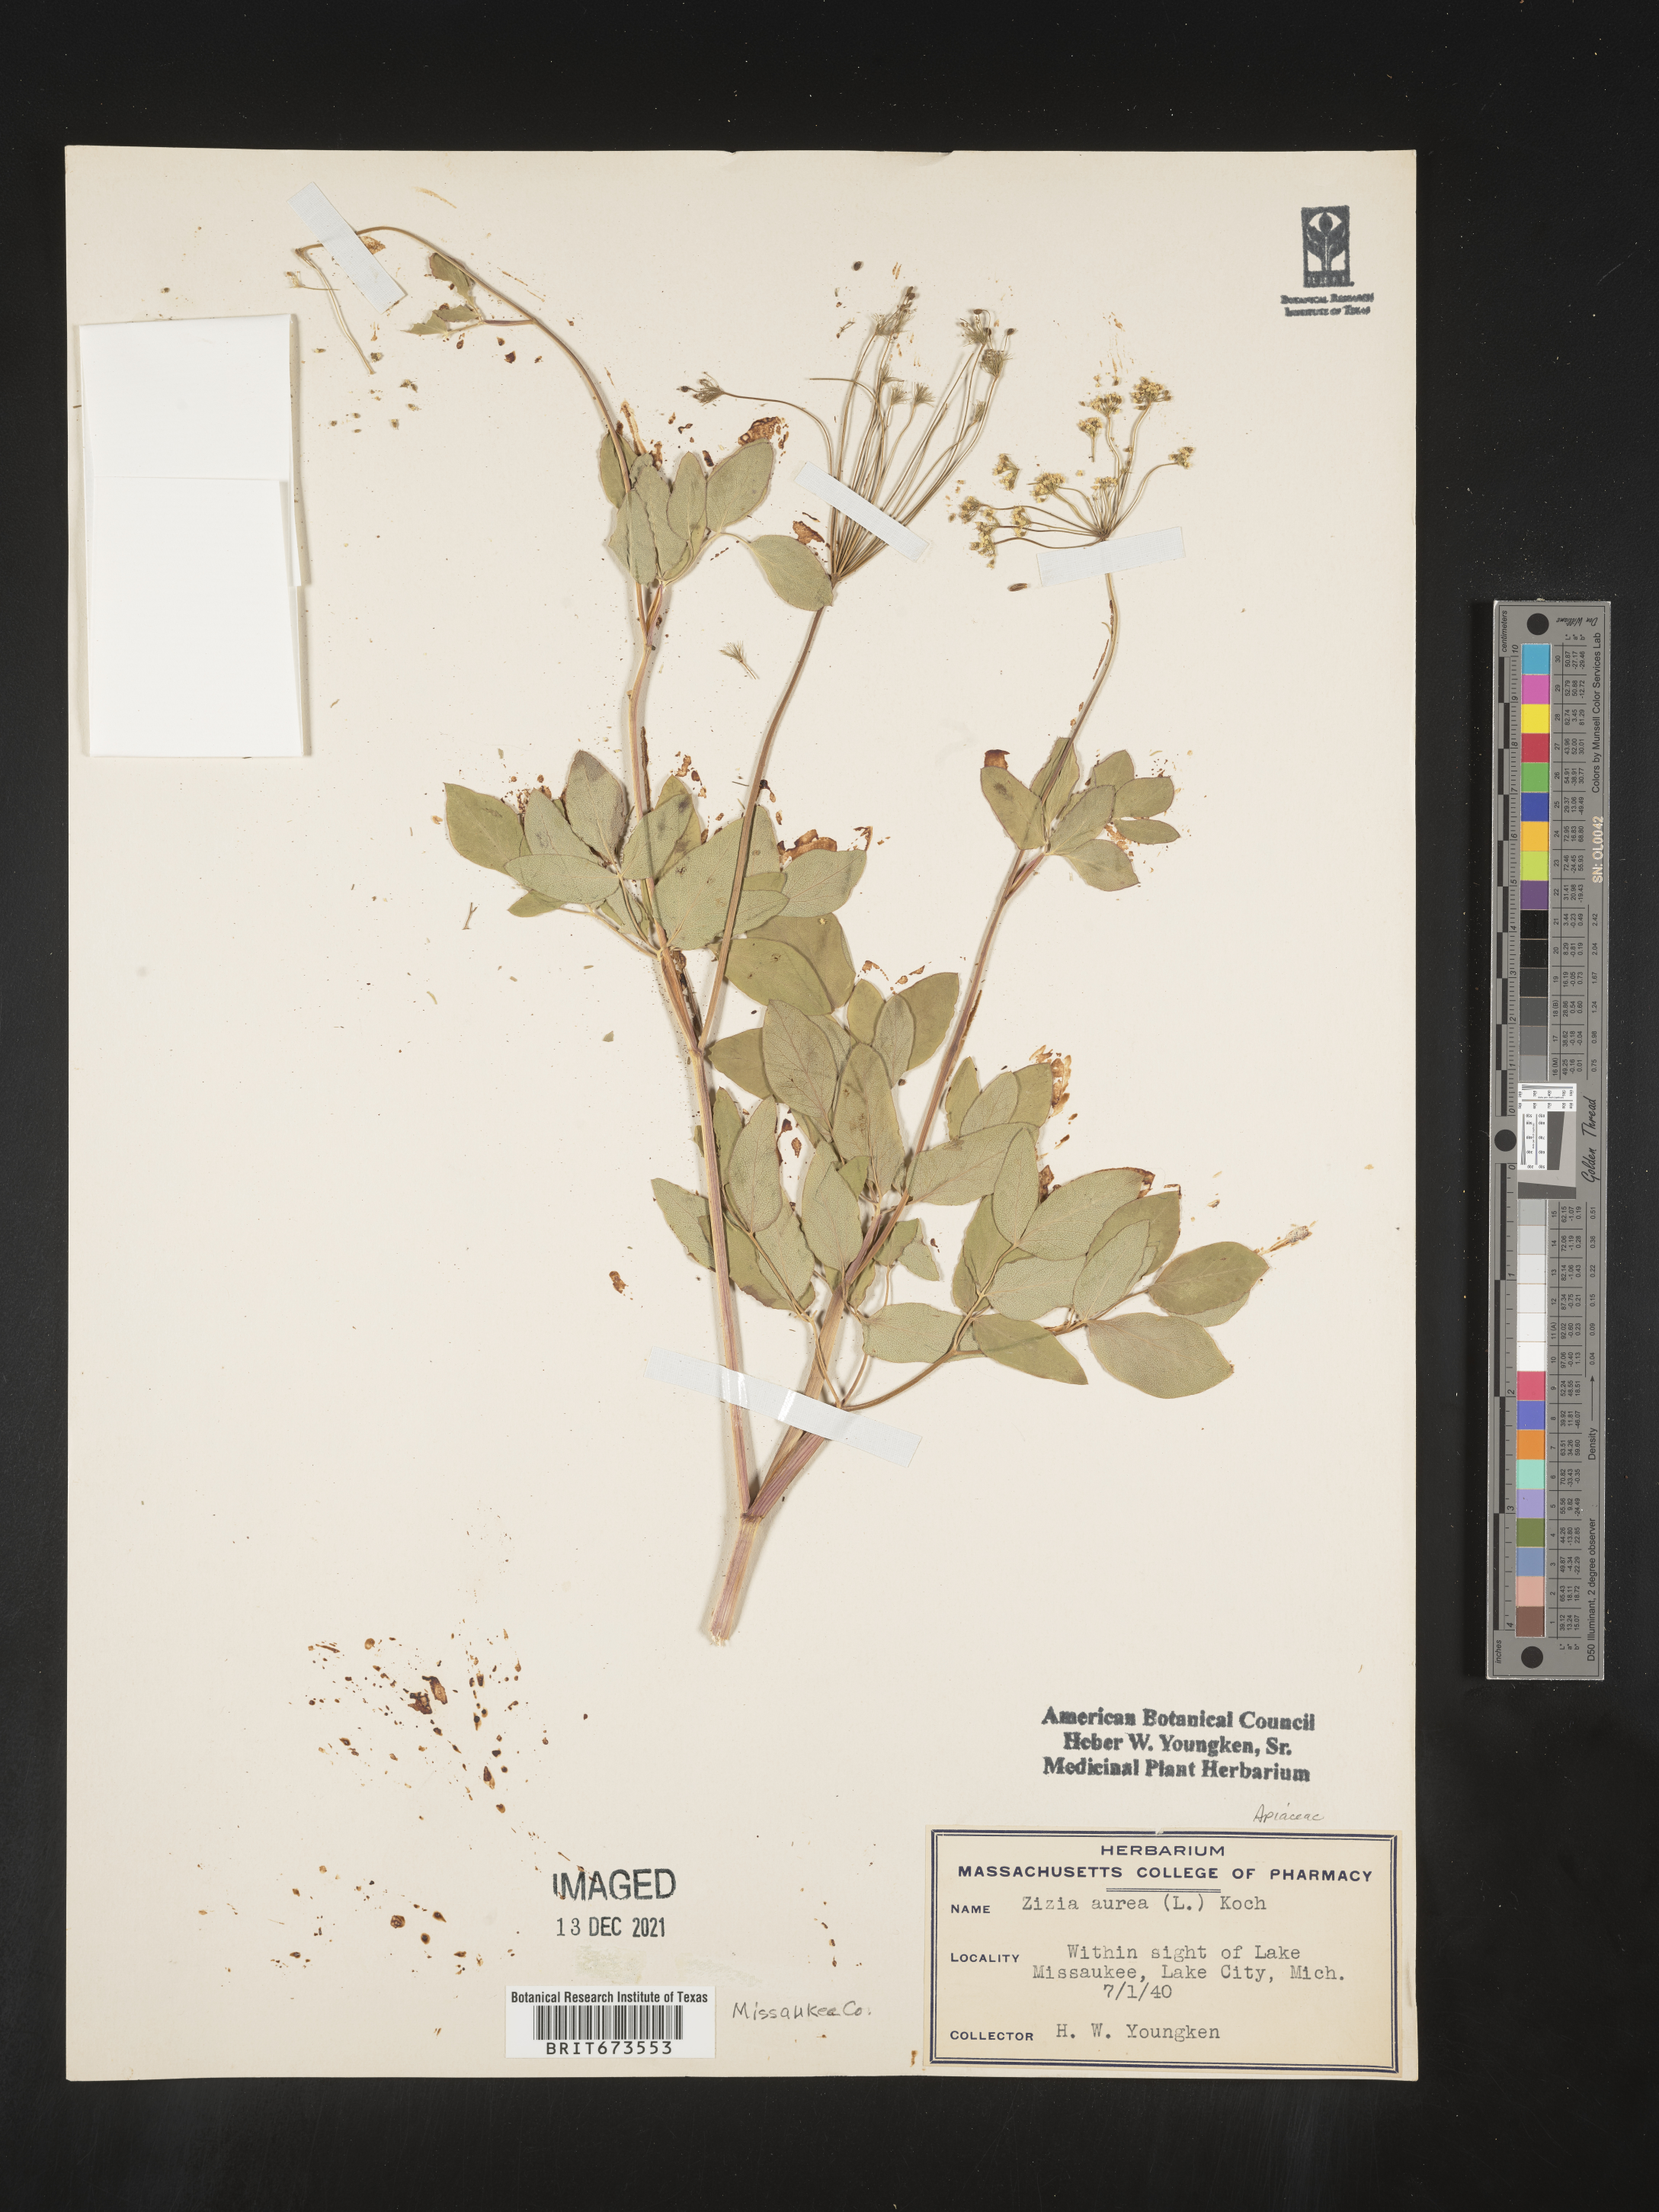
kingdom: Plantae
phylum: Tracheophyta
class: Magnoliopsida
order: Apiales
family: Apiaceae
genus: Zizia
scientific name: Zizia aurea
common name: Golden alexanders
